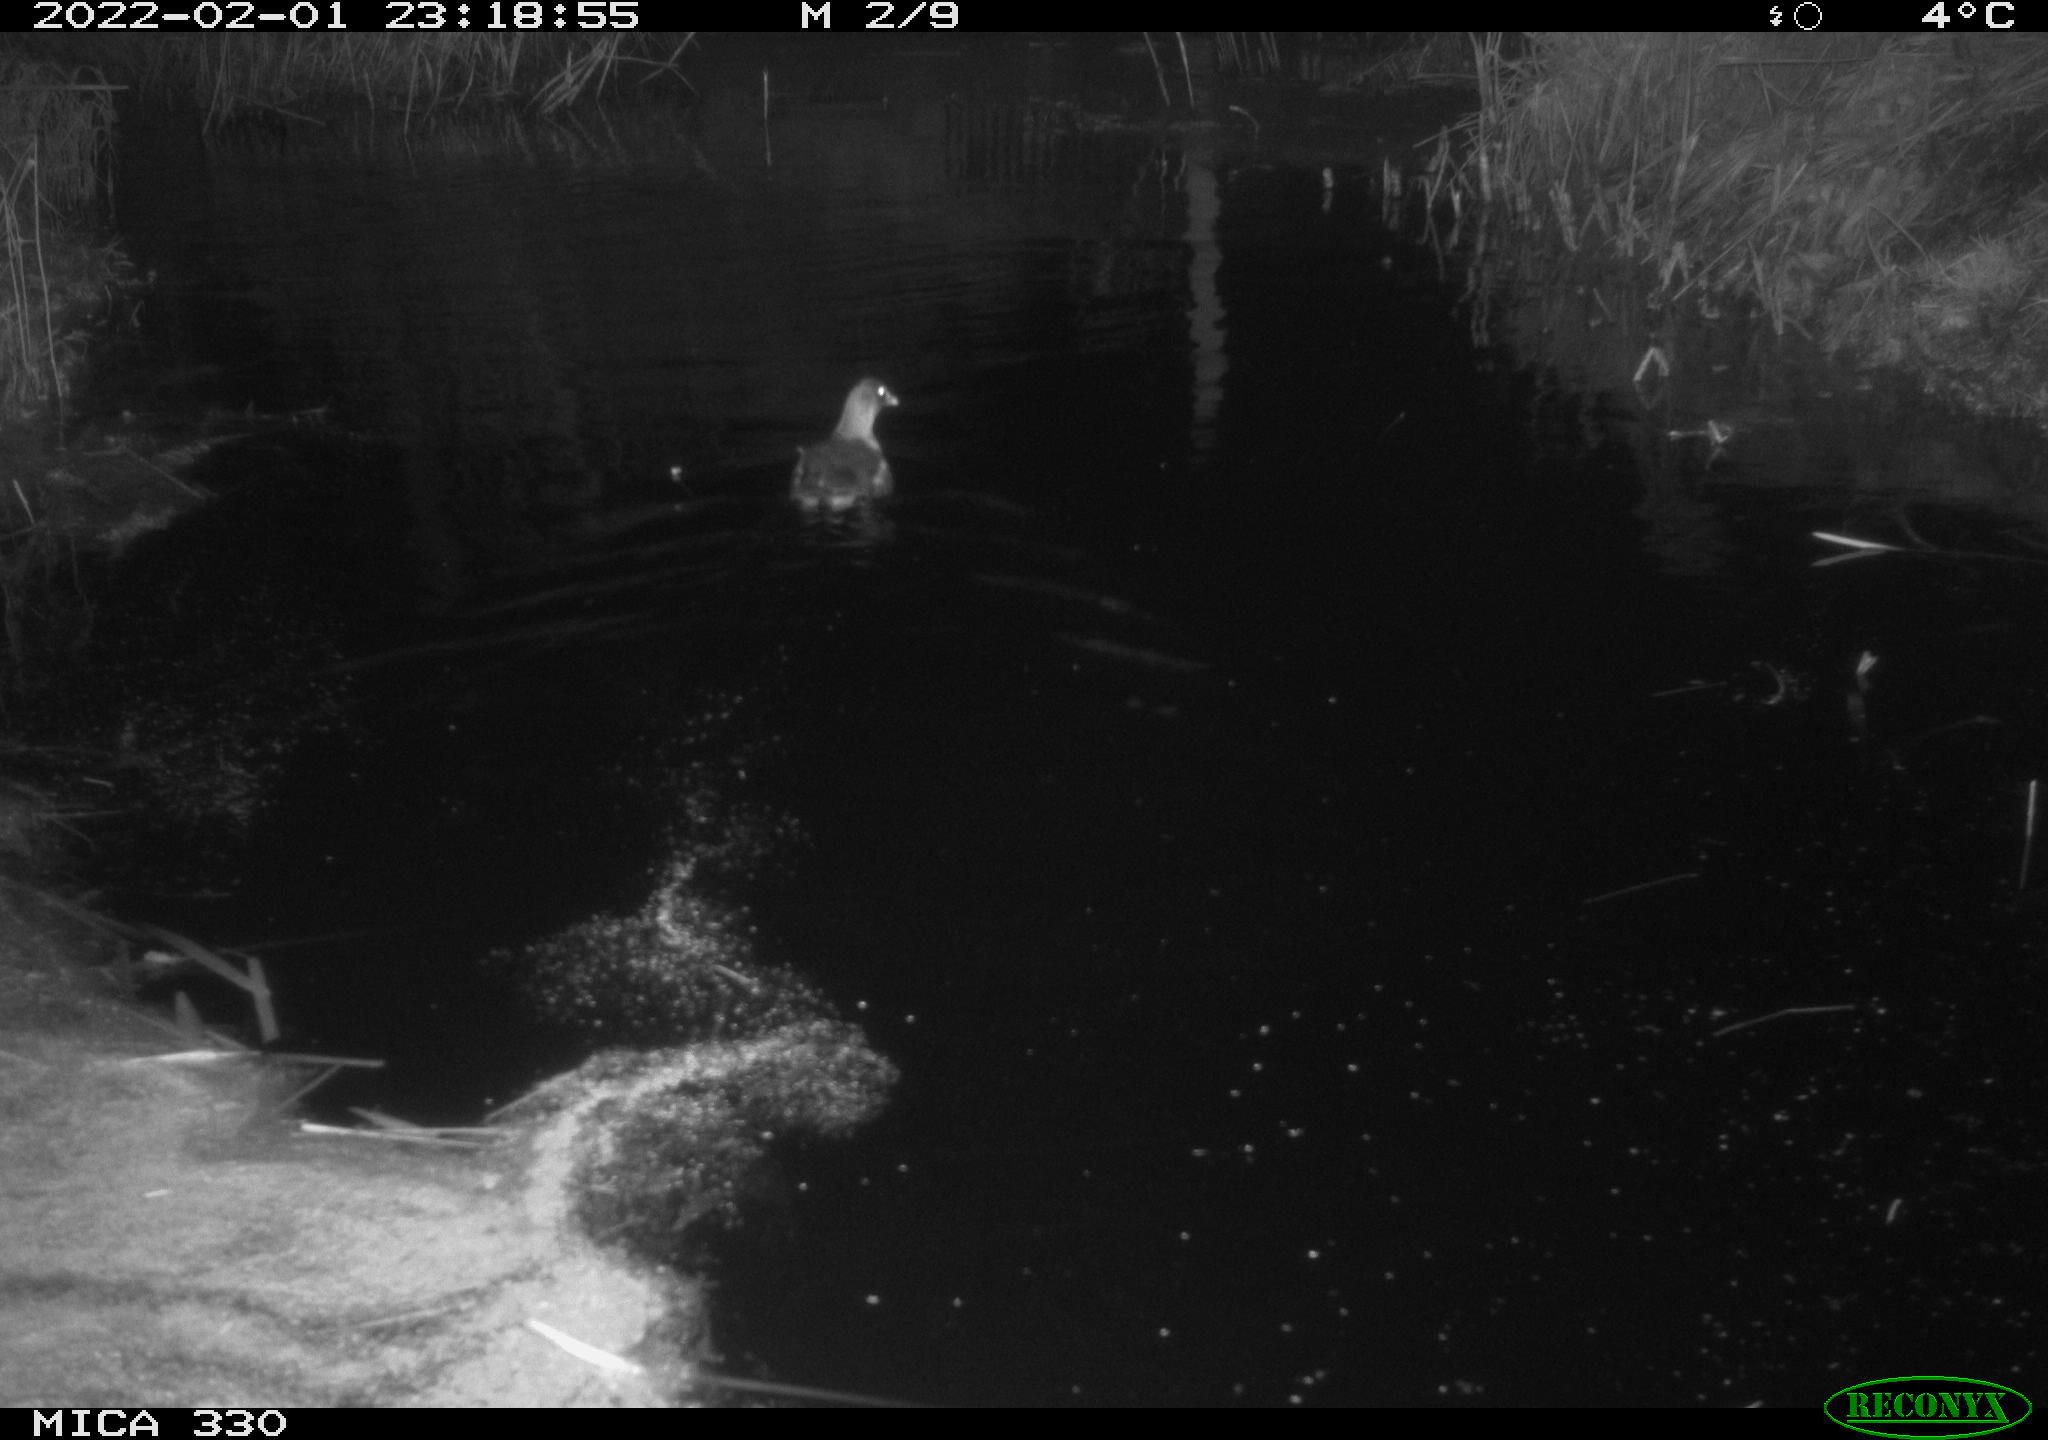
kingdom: Animalia
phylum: Chordata
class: Aves
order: Gruiformes
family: Rallidae
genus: Gallinula
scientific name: Gallinula chloropus
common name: Common moorhen
